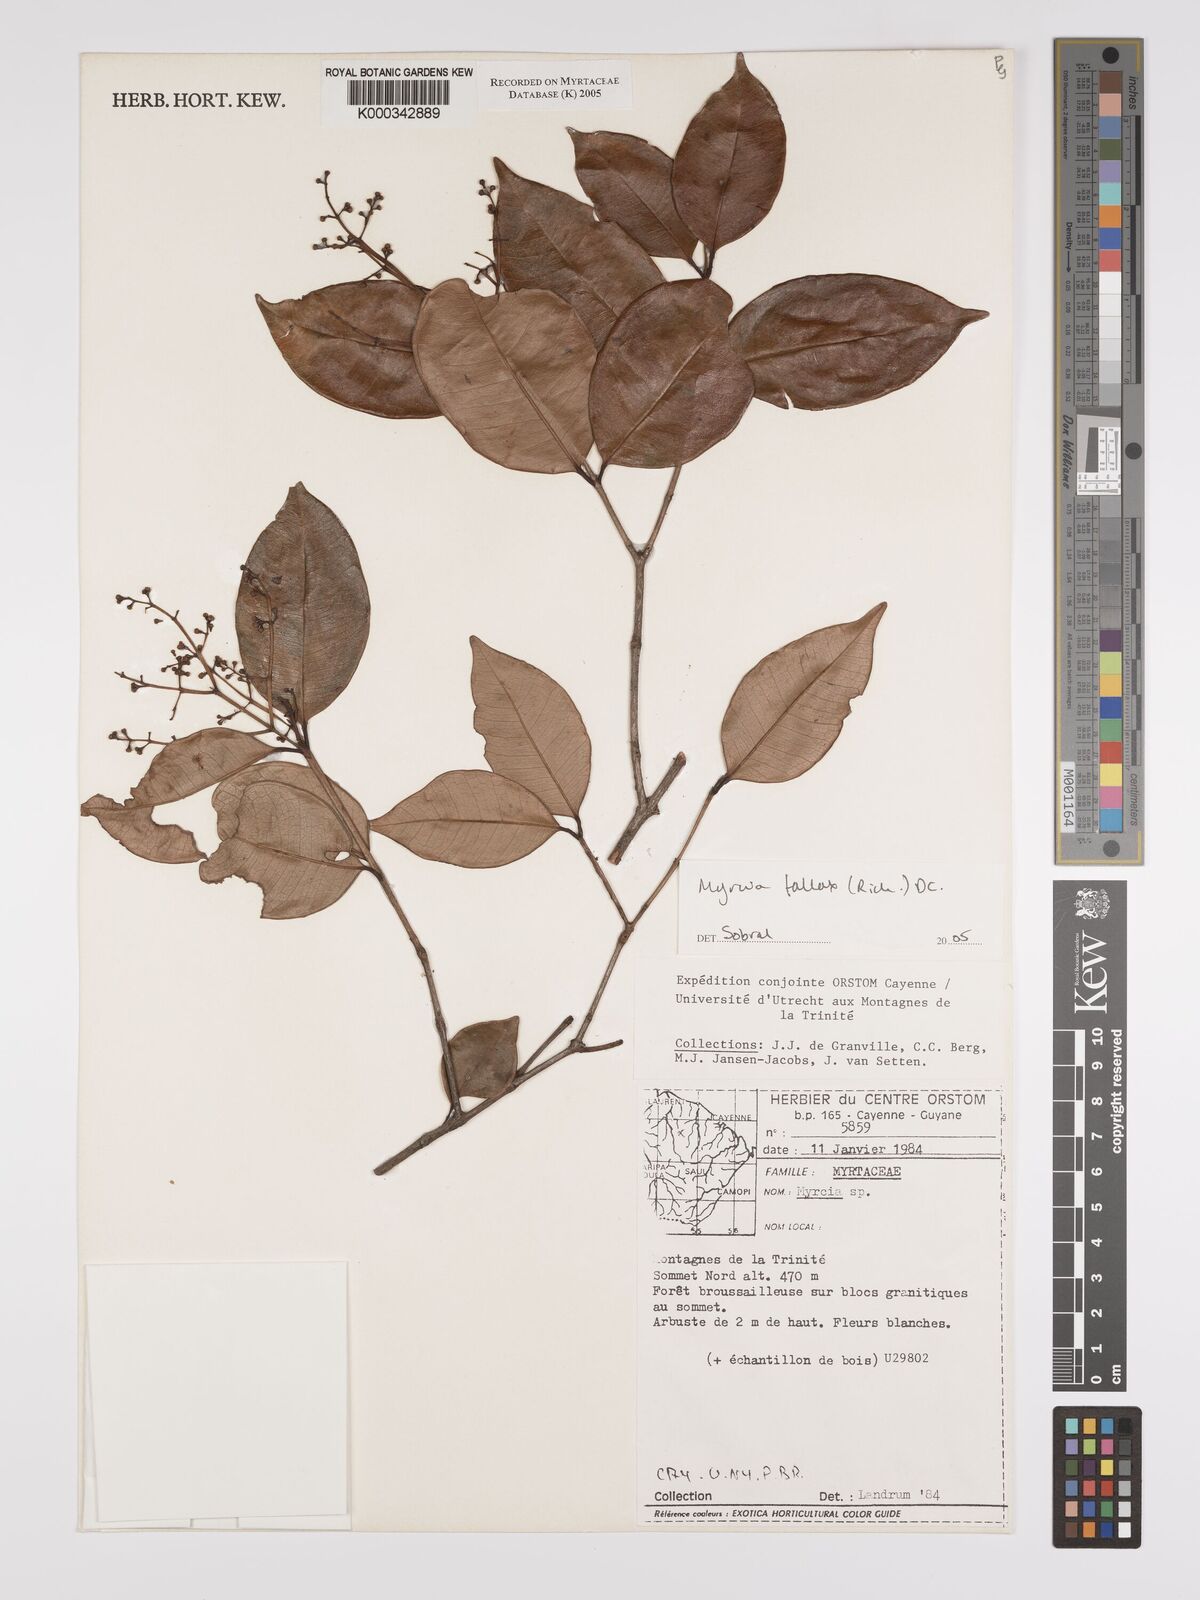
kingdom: Plantae
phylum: Tracheophyta
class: Magnoliopsida
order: Myrtales
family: Myrtaceae
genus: Myrcia
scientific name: Myrcia splendens
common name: Surinam cherry
